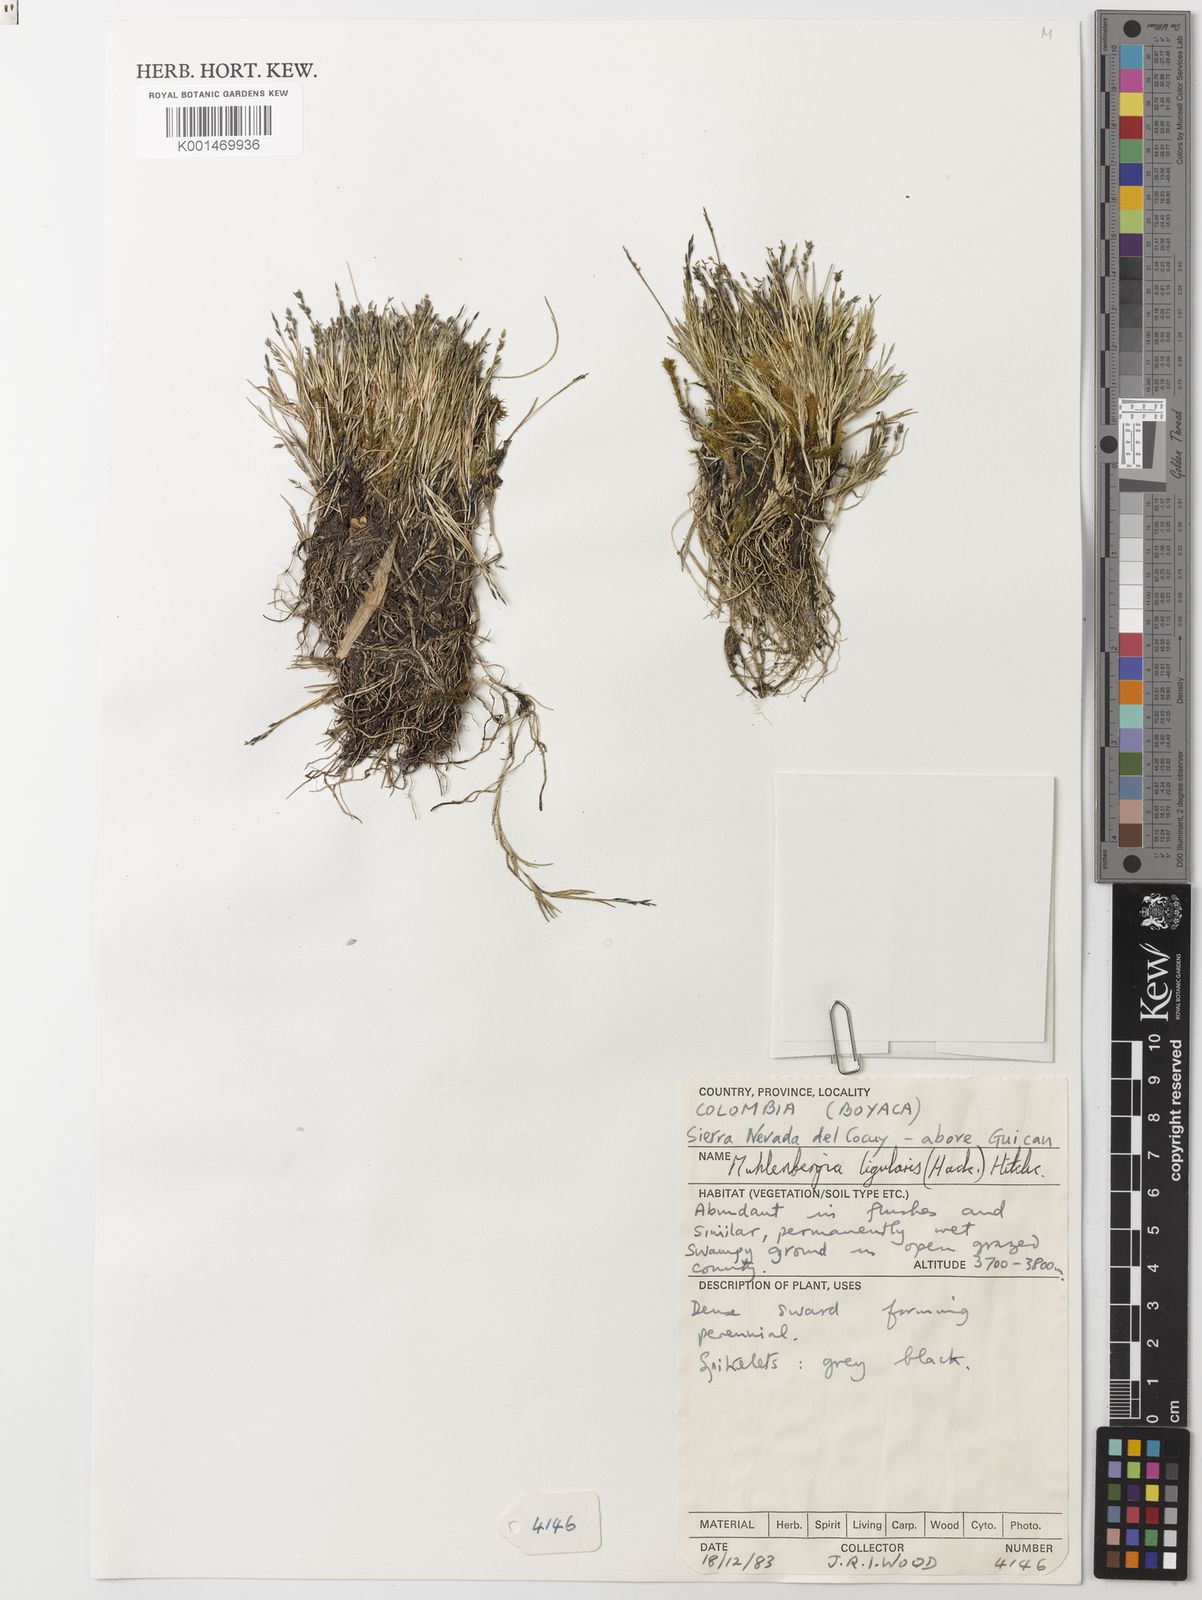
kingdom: Plantae
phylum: Tracheophyta
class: Liliopsida
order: Poales
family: Poaceae
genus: Muhlenbergia
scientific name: Muhlenbergia fastigiata
